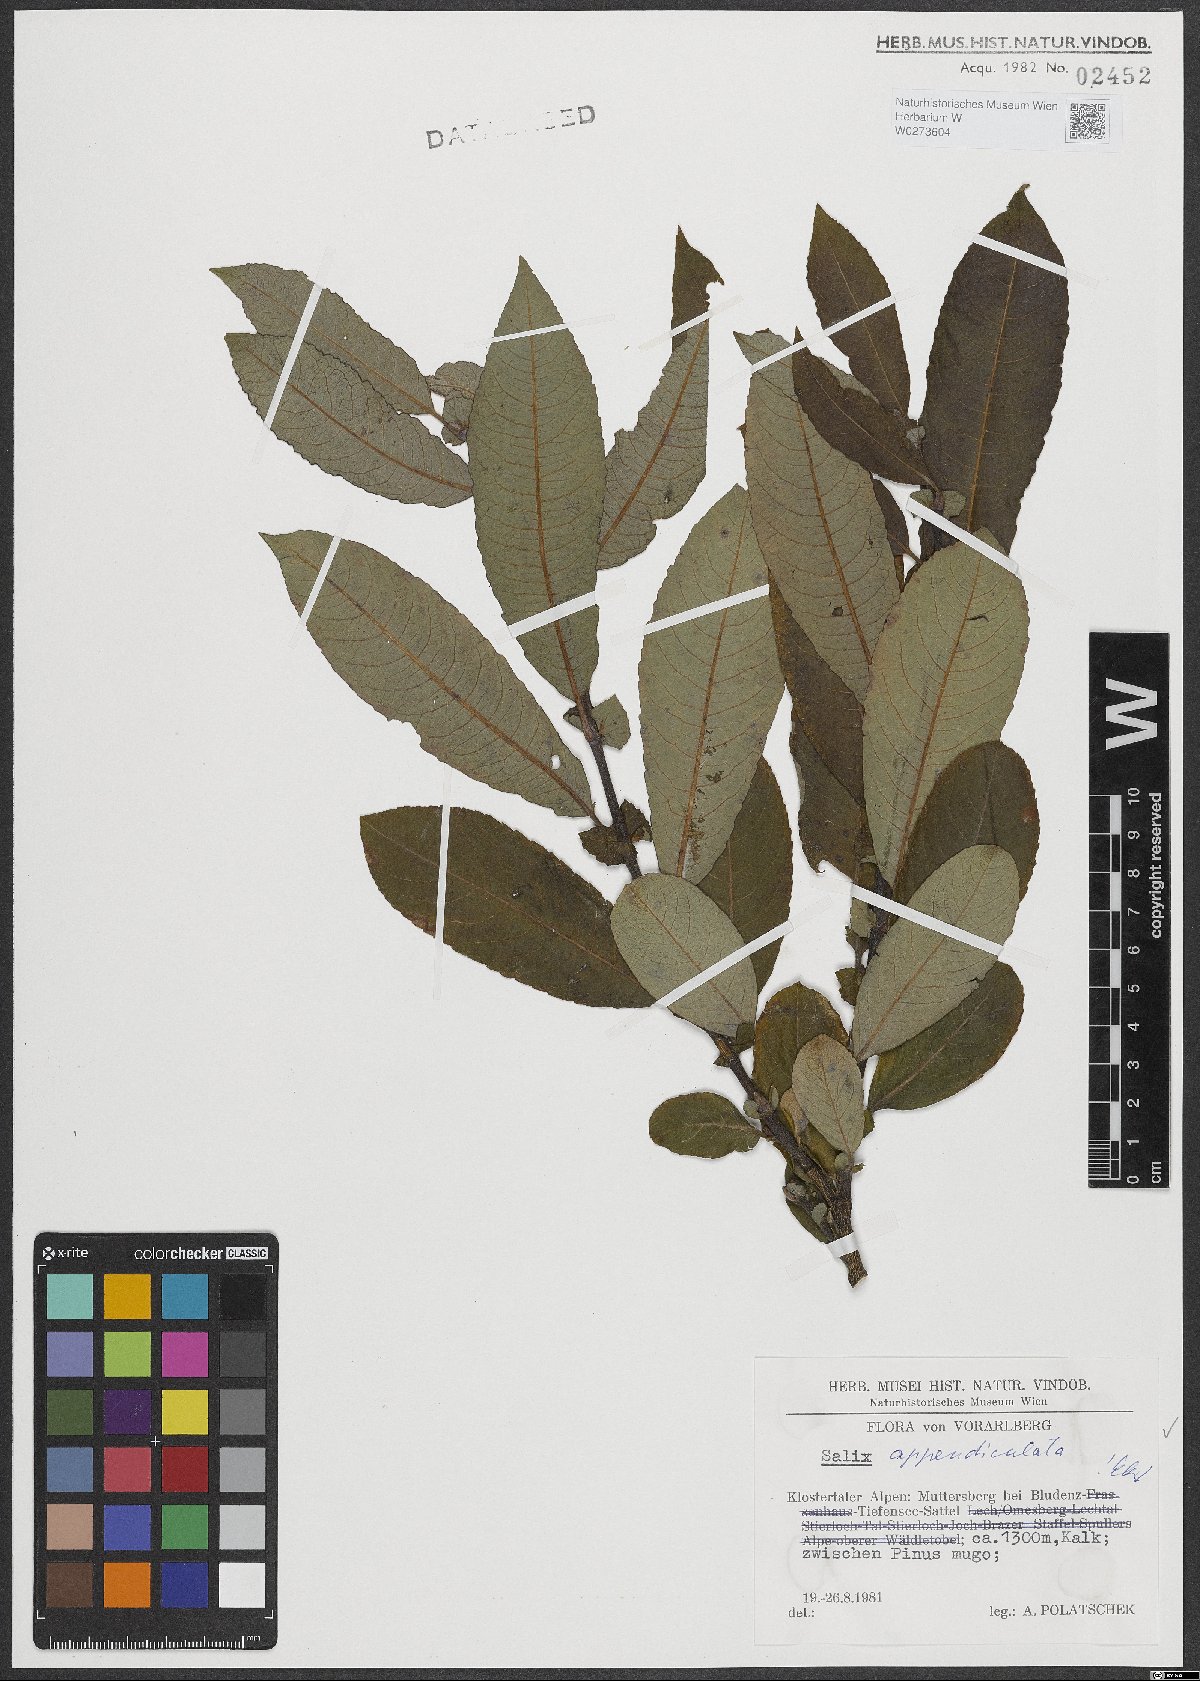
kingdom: Plantae
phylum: Tracheophyta
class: Magnoliopsida
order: Malpighiales
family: Salicaceae
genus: Salix
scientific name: Salix appendiculata
